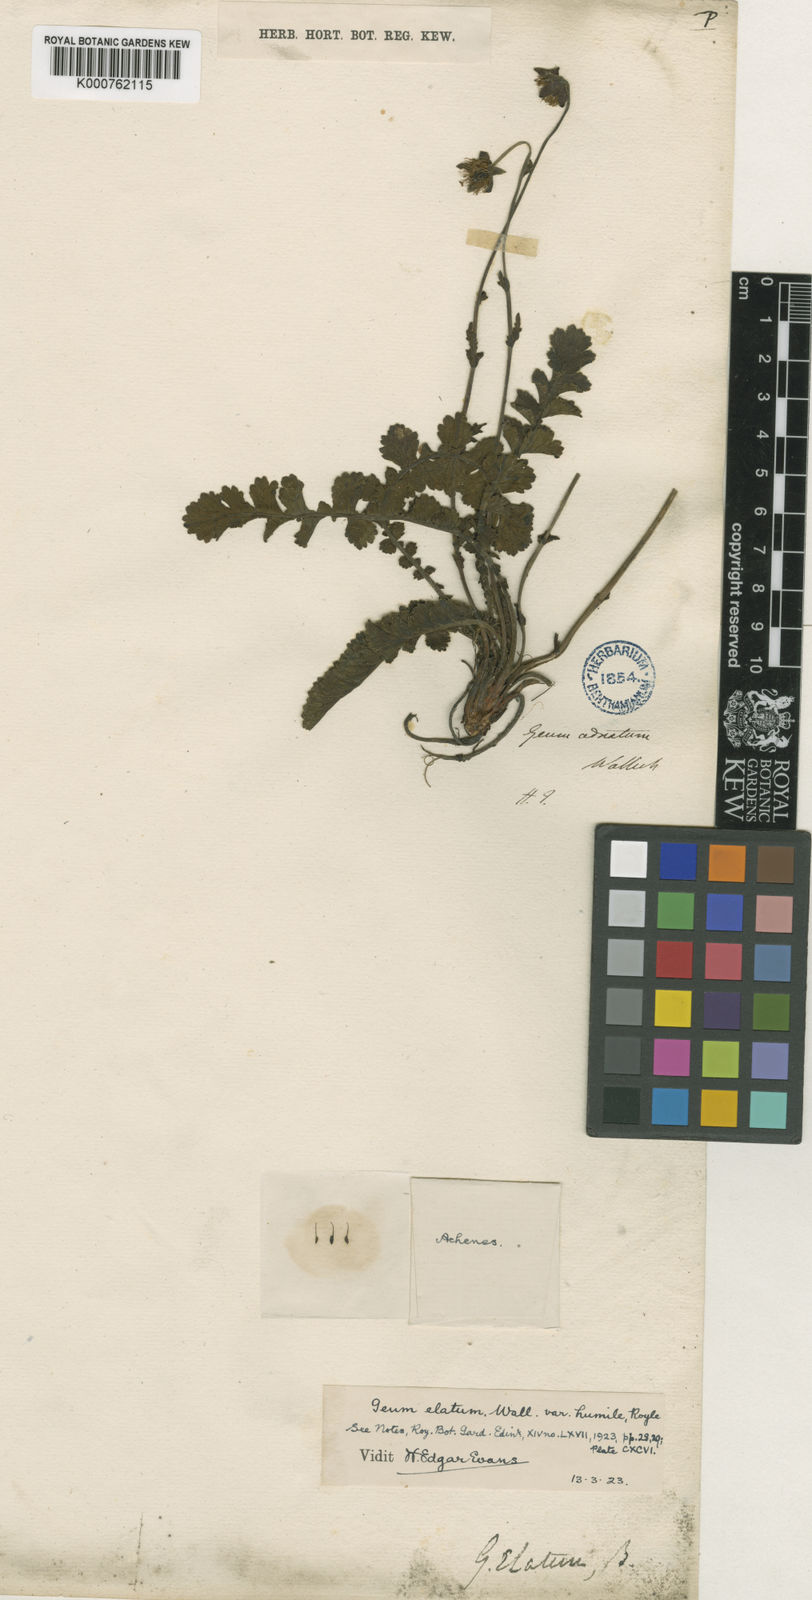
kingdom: Plantae
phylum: Tracheophyta
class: Magnoliopsida
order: Rosales
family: Rosaceae
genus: Geum
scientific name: Geum elatum
